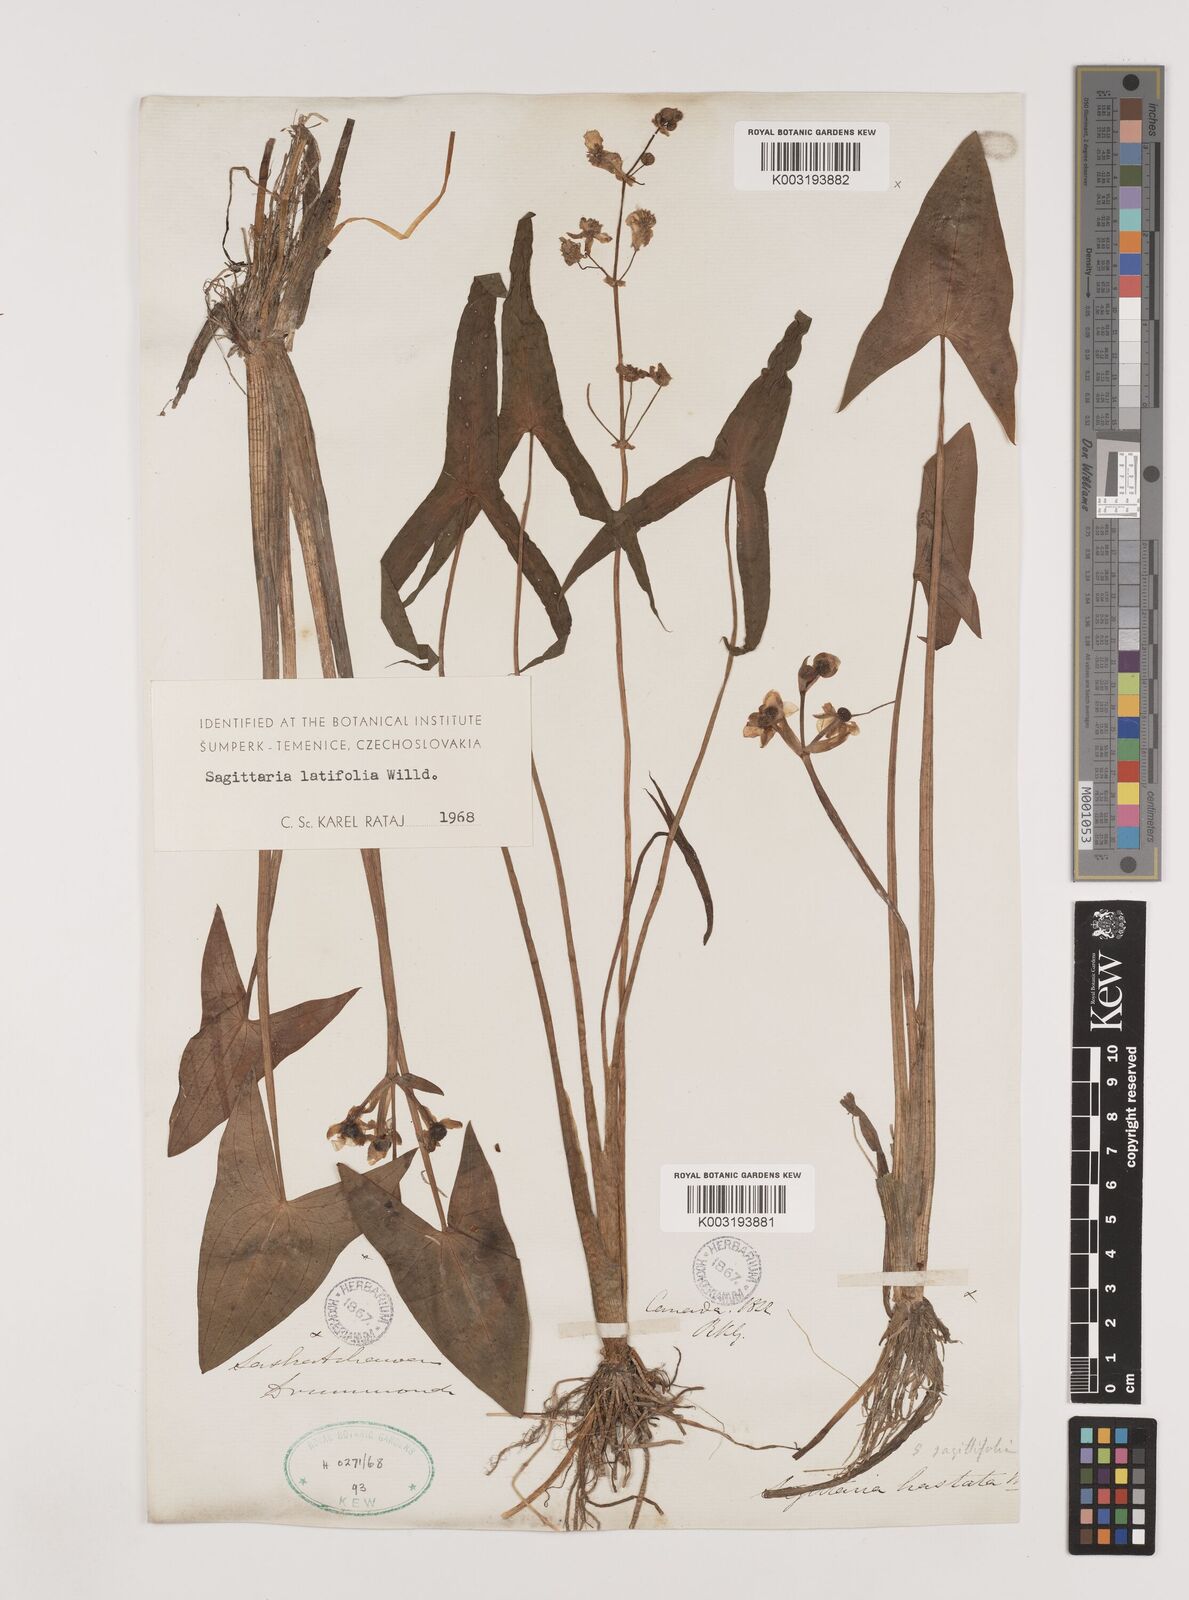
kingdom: Plantae
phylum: Tracheophyta
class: Liliopsida
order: Alismatales
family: Alismataceae
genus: Sagittaria
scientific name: Sagittaria latifolia
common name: Duck-potato
